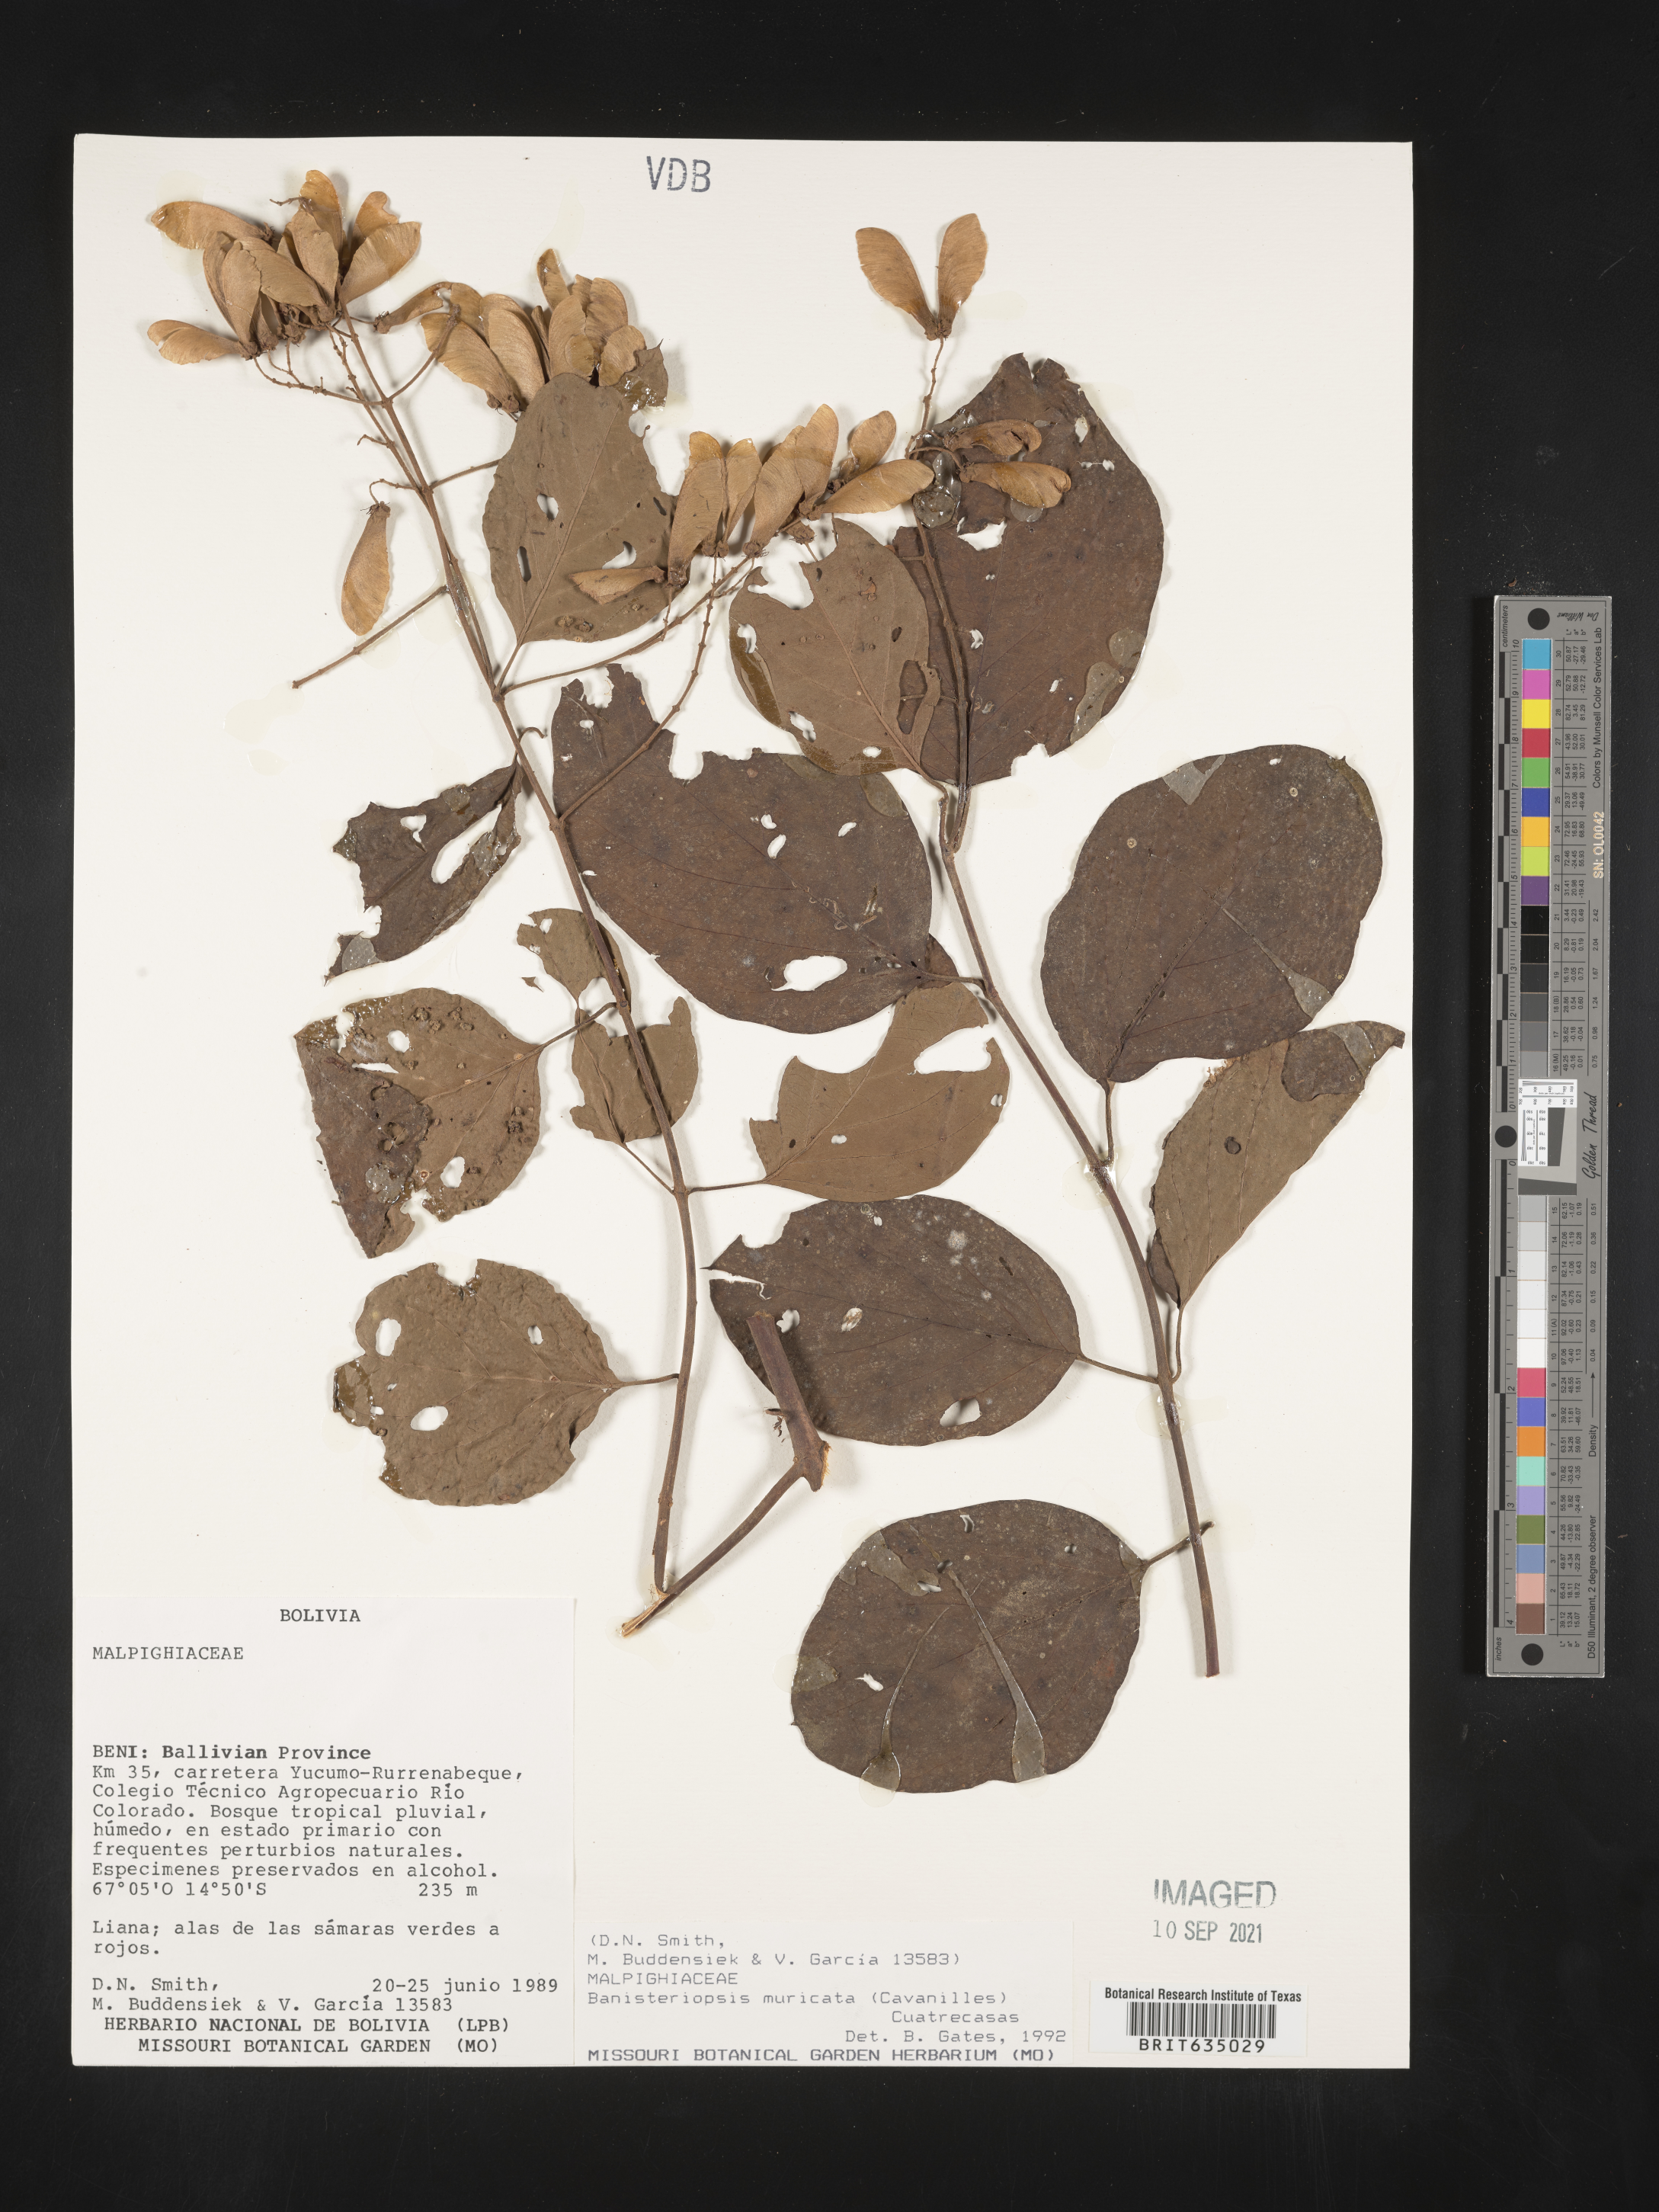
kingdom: Plantae
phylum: Tracheophyta
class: Magnoliopsida
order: Malpighiales
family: Malpighiaceae
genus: Banisteriopsis
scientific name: Banisteriopsis
